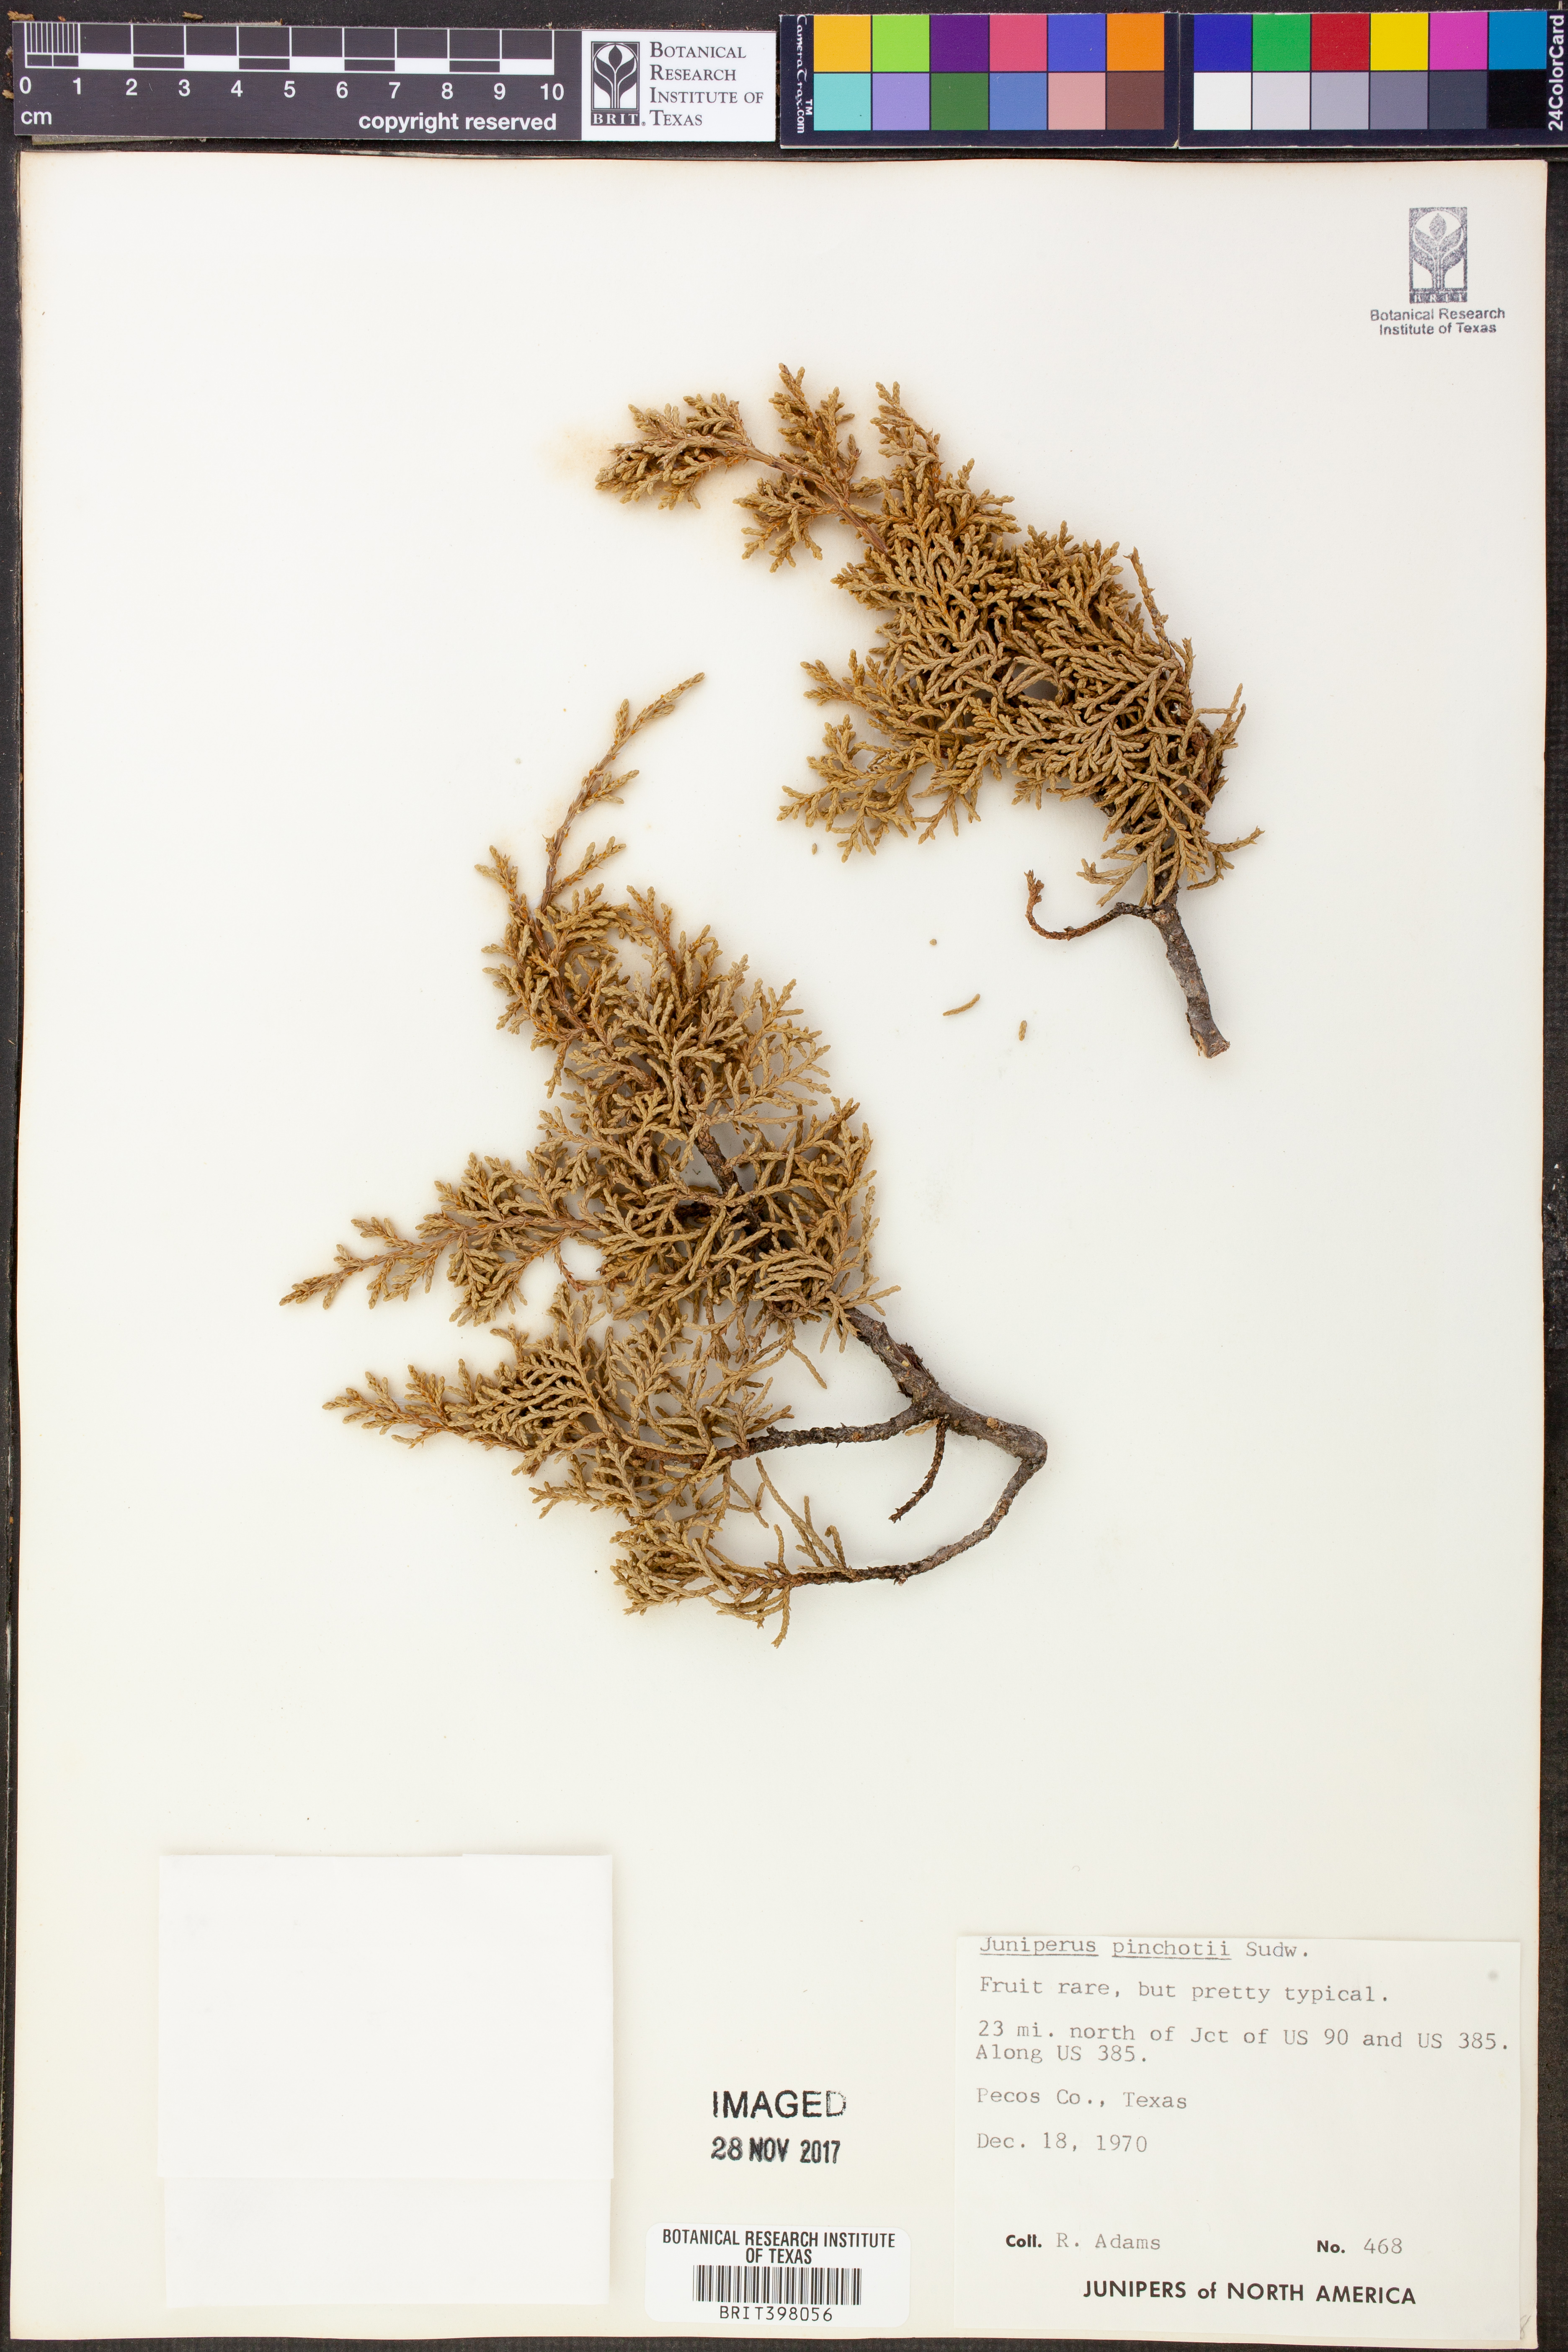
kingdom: Plantae
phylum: Tracheophyta
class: Pinopsida
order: Pinales
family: Cupressaceae
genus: Juniperus
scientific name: Juniperus pinchotii
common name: Pinchot juniper
